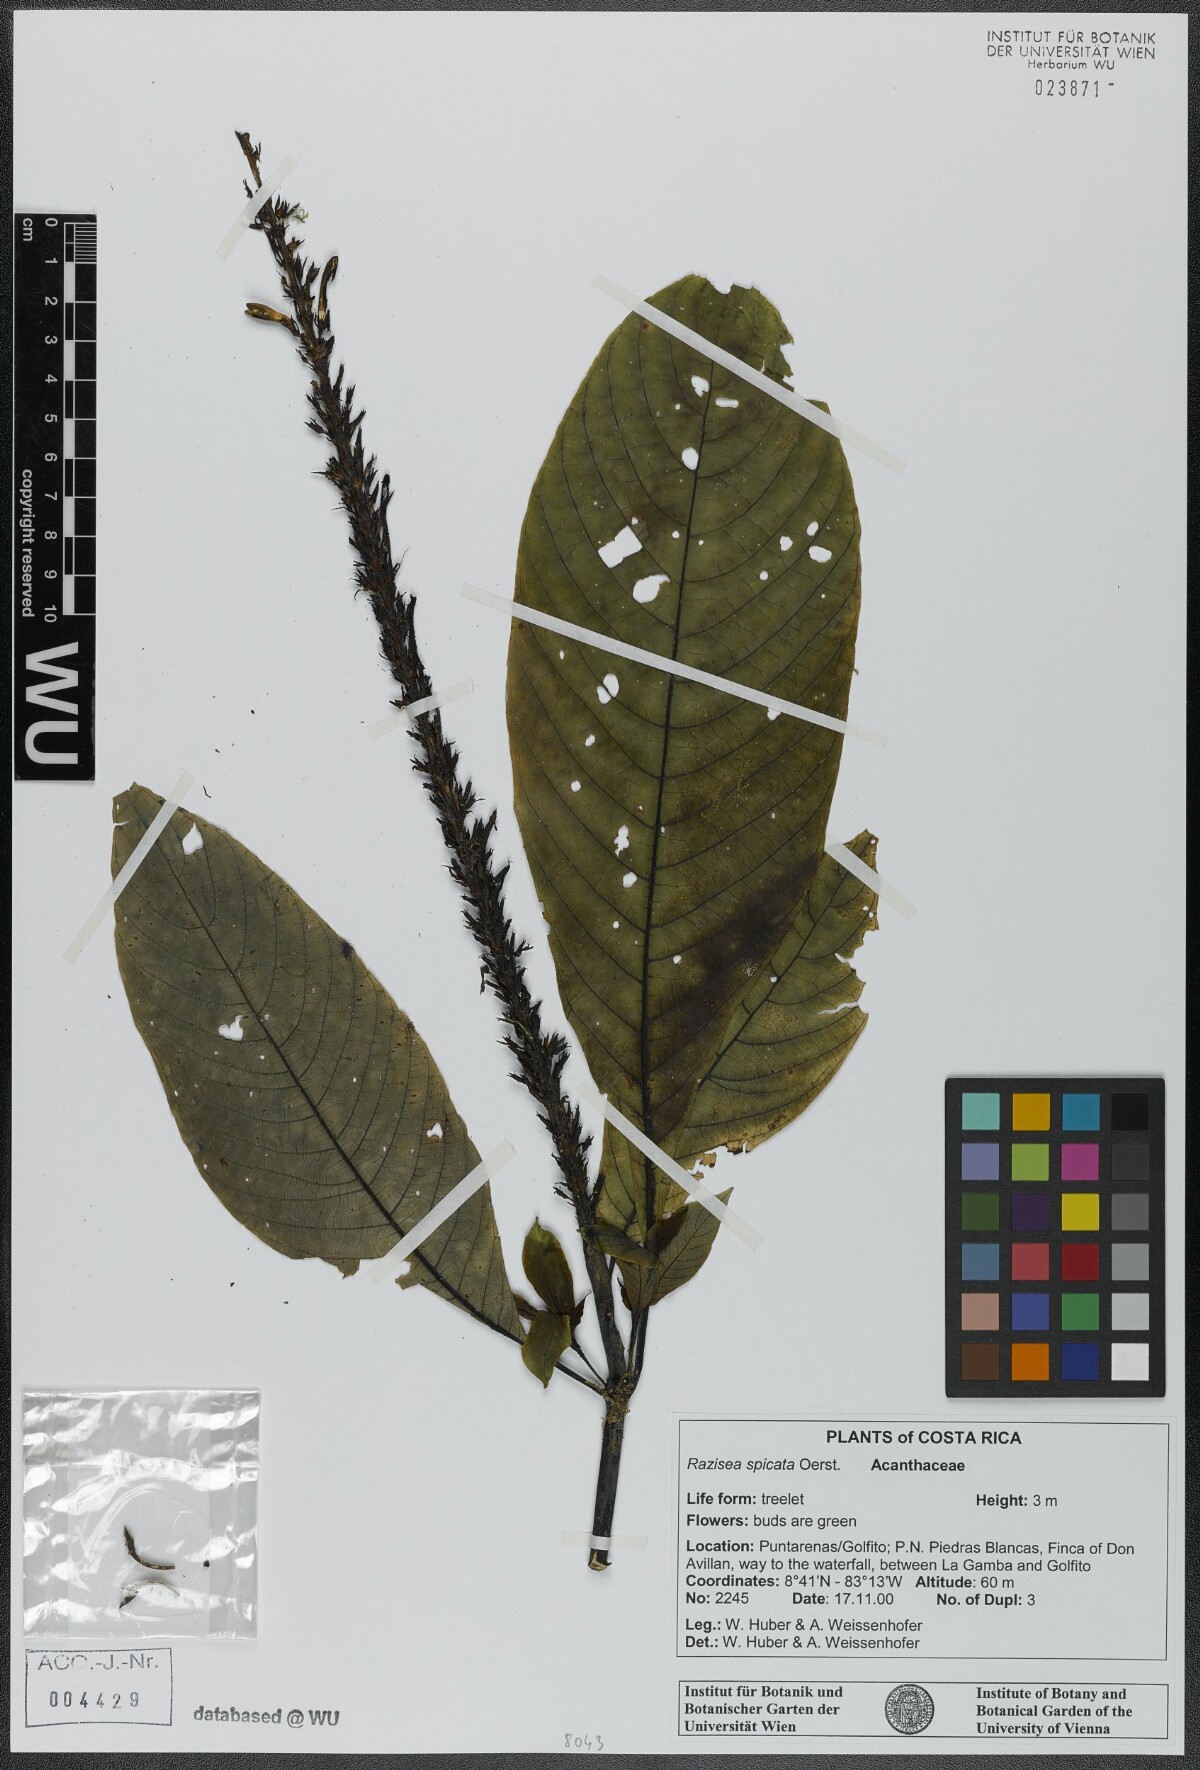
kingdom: Plantae
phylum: Tracheophyta
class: Magnoliopsida
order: Lamiales
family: Acanthaceae
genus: Stenostephanus
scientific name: Stenostephanus leiorhachis
